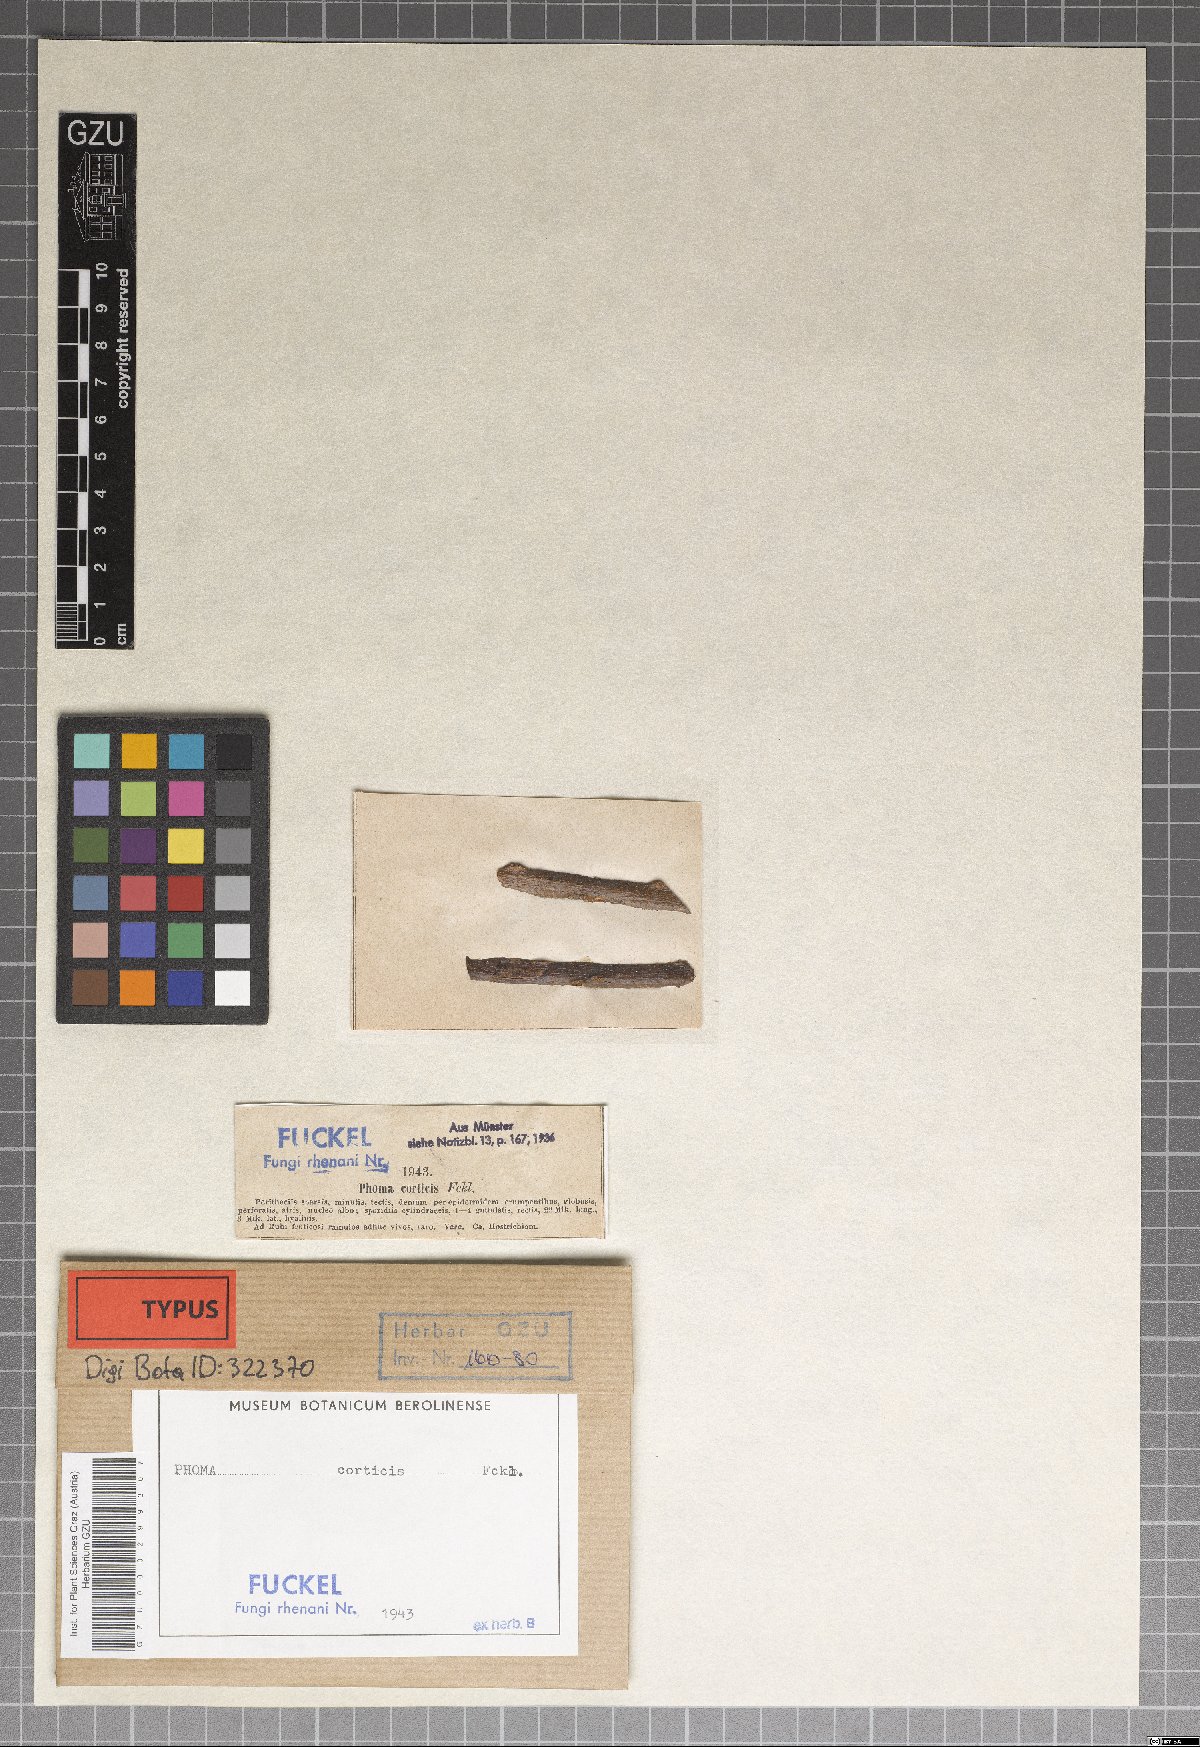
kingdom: Fungi
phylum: Ascomycota
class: Sordariomycetes
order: Diaporthales
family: Diaporthaceae
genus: Phomopsis
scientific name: Phomopsis corticis
